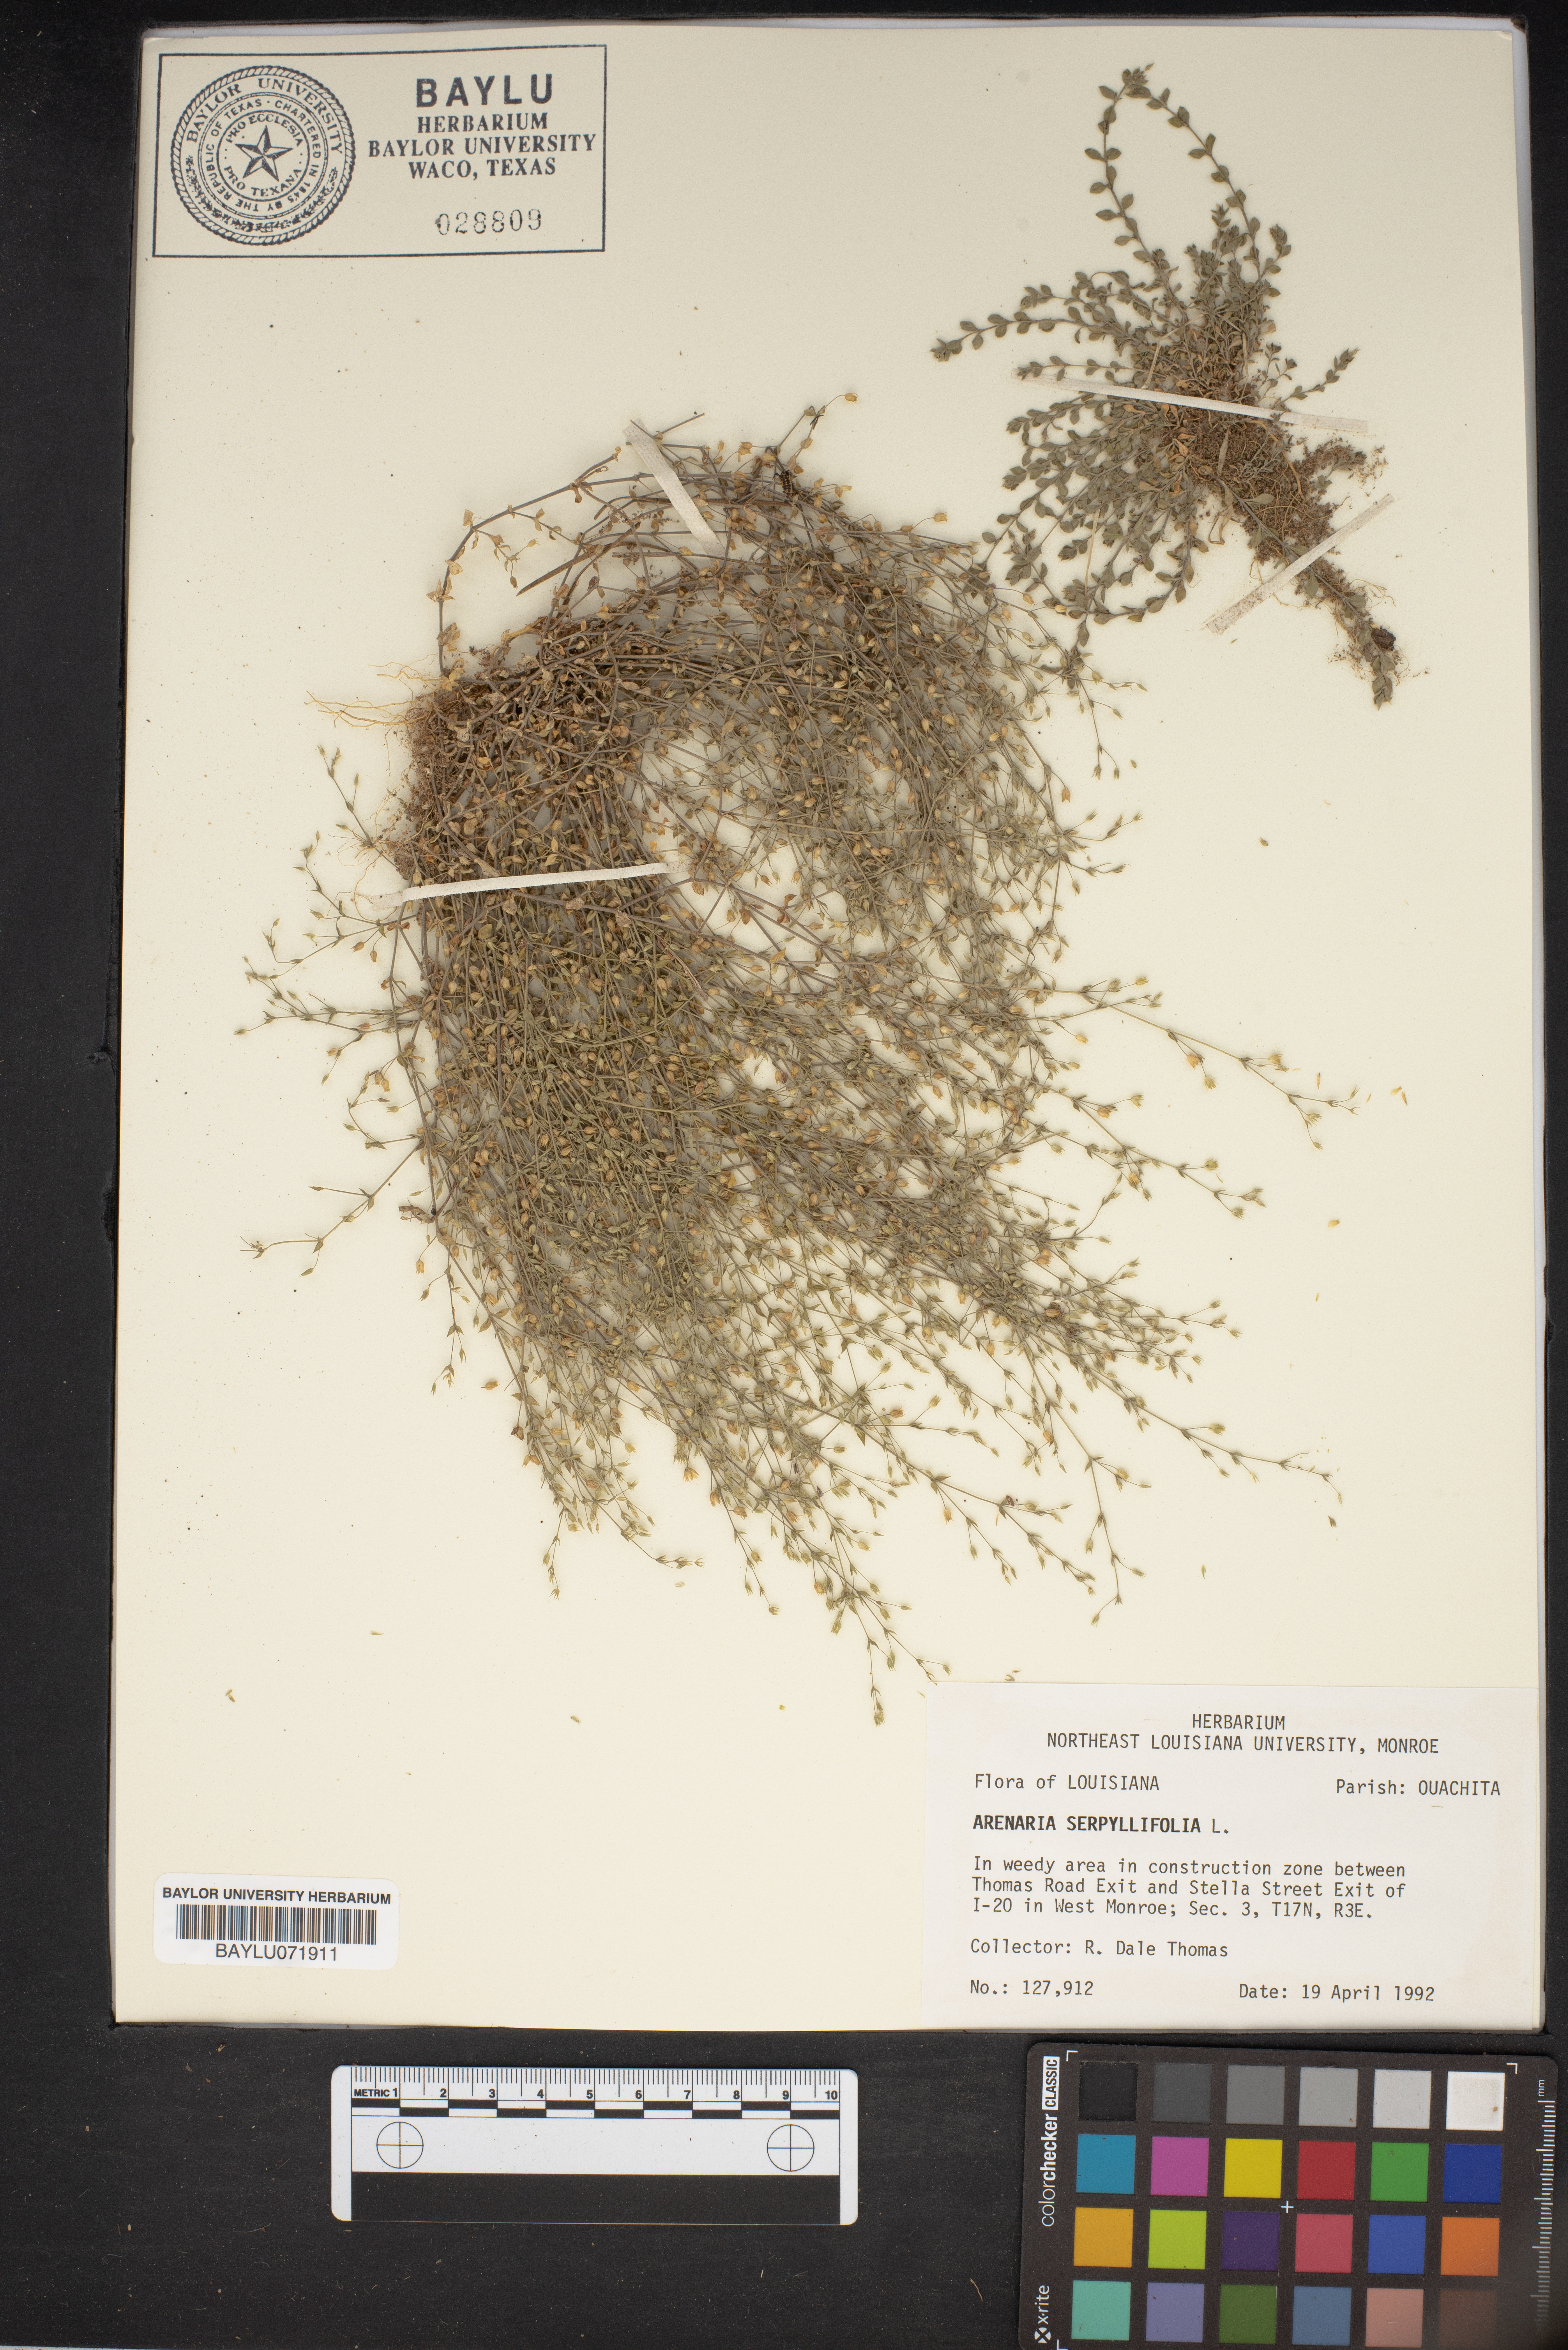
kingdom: Plantae
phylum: Tracheophyta
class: Magnoliopsida
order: Caryophyllales
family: Caryophyllaceae
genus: Arenaria
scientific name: Arenaria serpyllifolia
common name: Thyme-leaved sandwort
